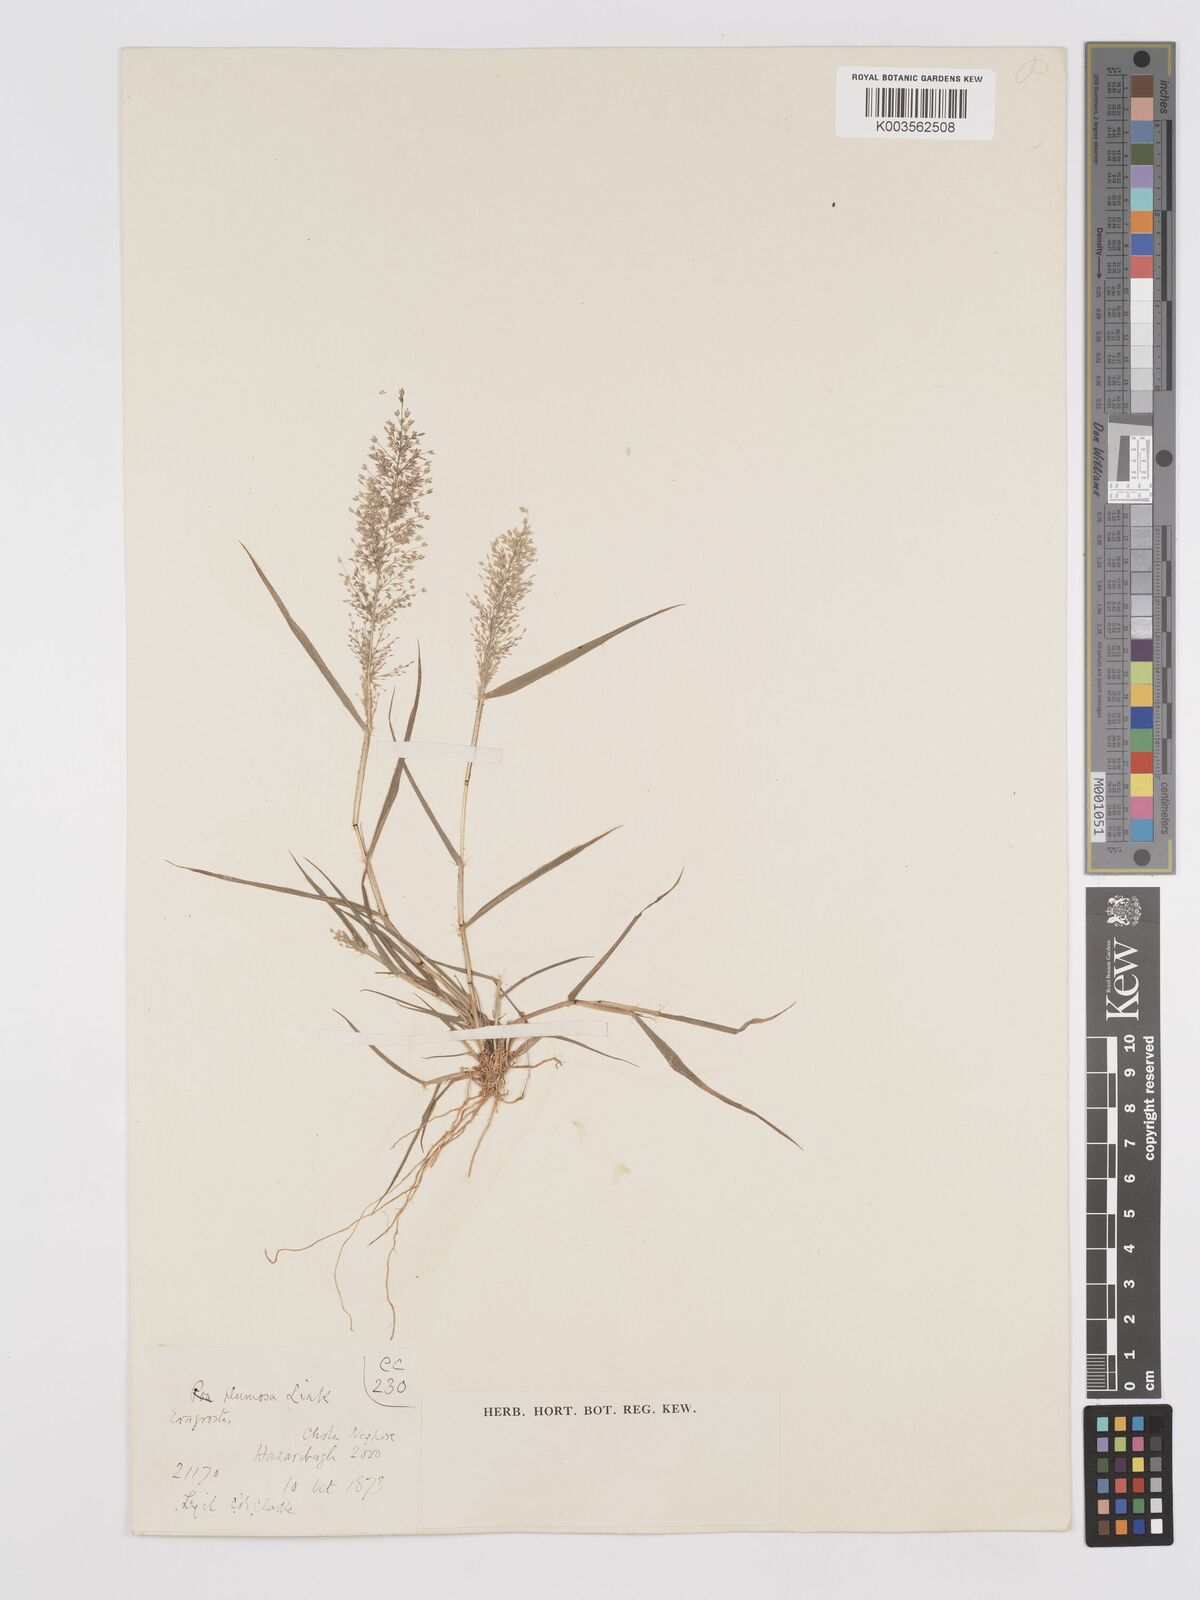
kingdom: Plantae
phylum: Tracheophyta
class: Liliopsida
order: Poales
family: Poaceae
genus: Eragrostis
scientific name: Eragrostis tenella
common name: Japanese lovegrass
